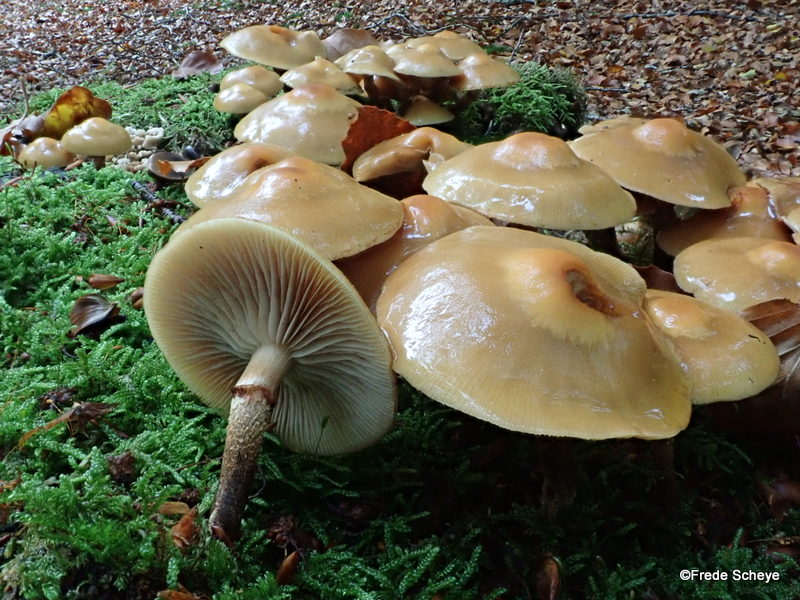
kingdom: Fungi
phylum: Basidiomycota
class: Agaricomycetes
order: Agaricales
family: Strophariaceae
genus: Kuehneromyces
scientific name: Kuehneromyces mutabilis
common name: foranderlig skælhat
